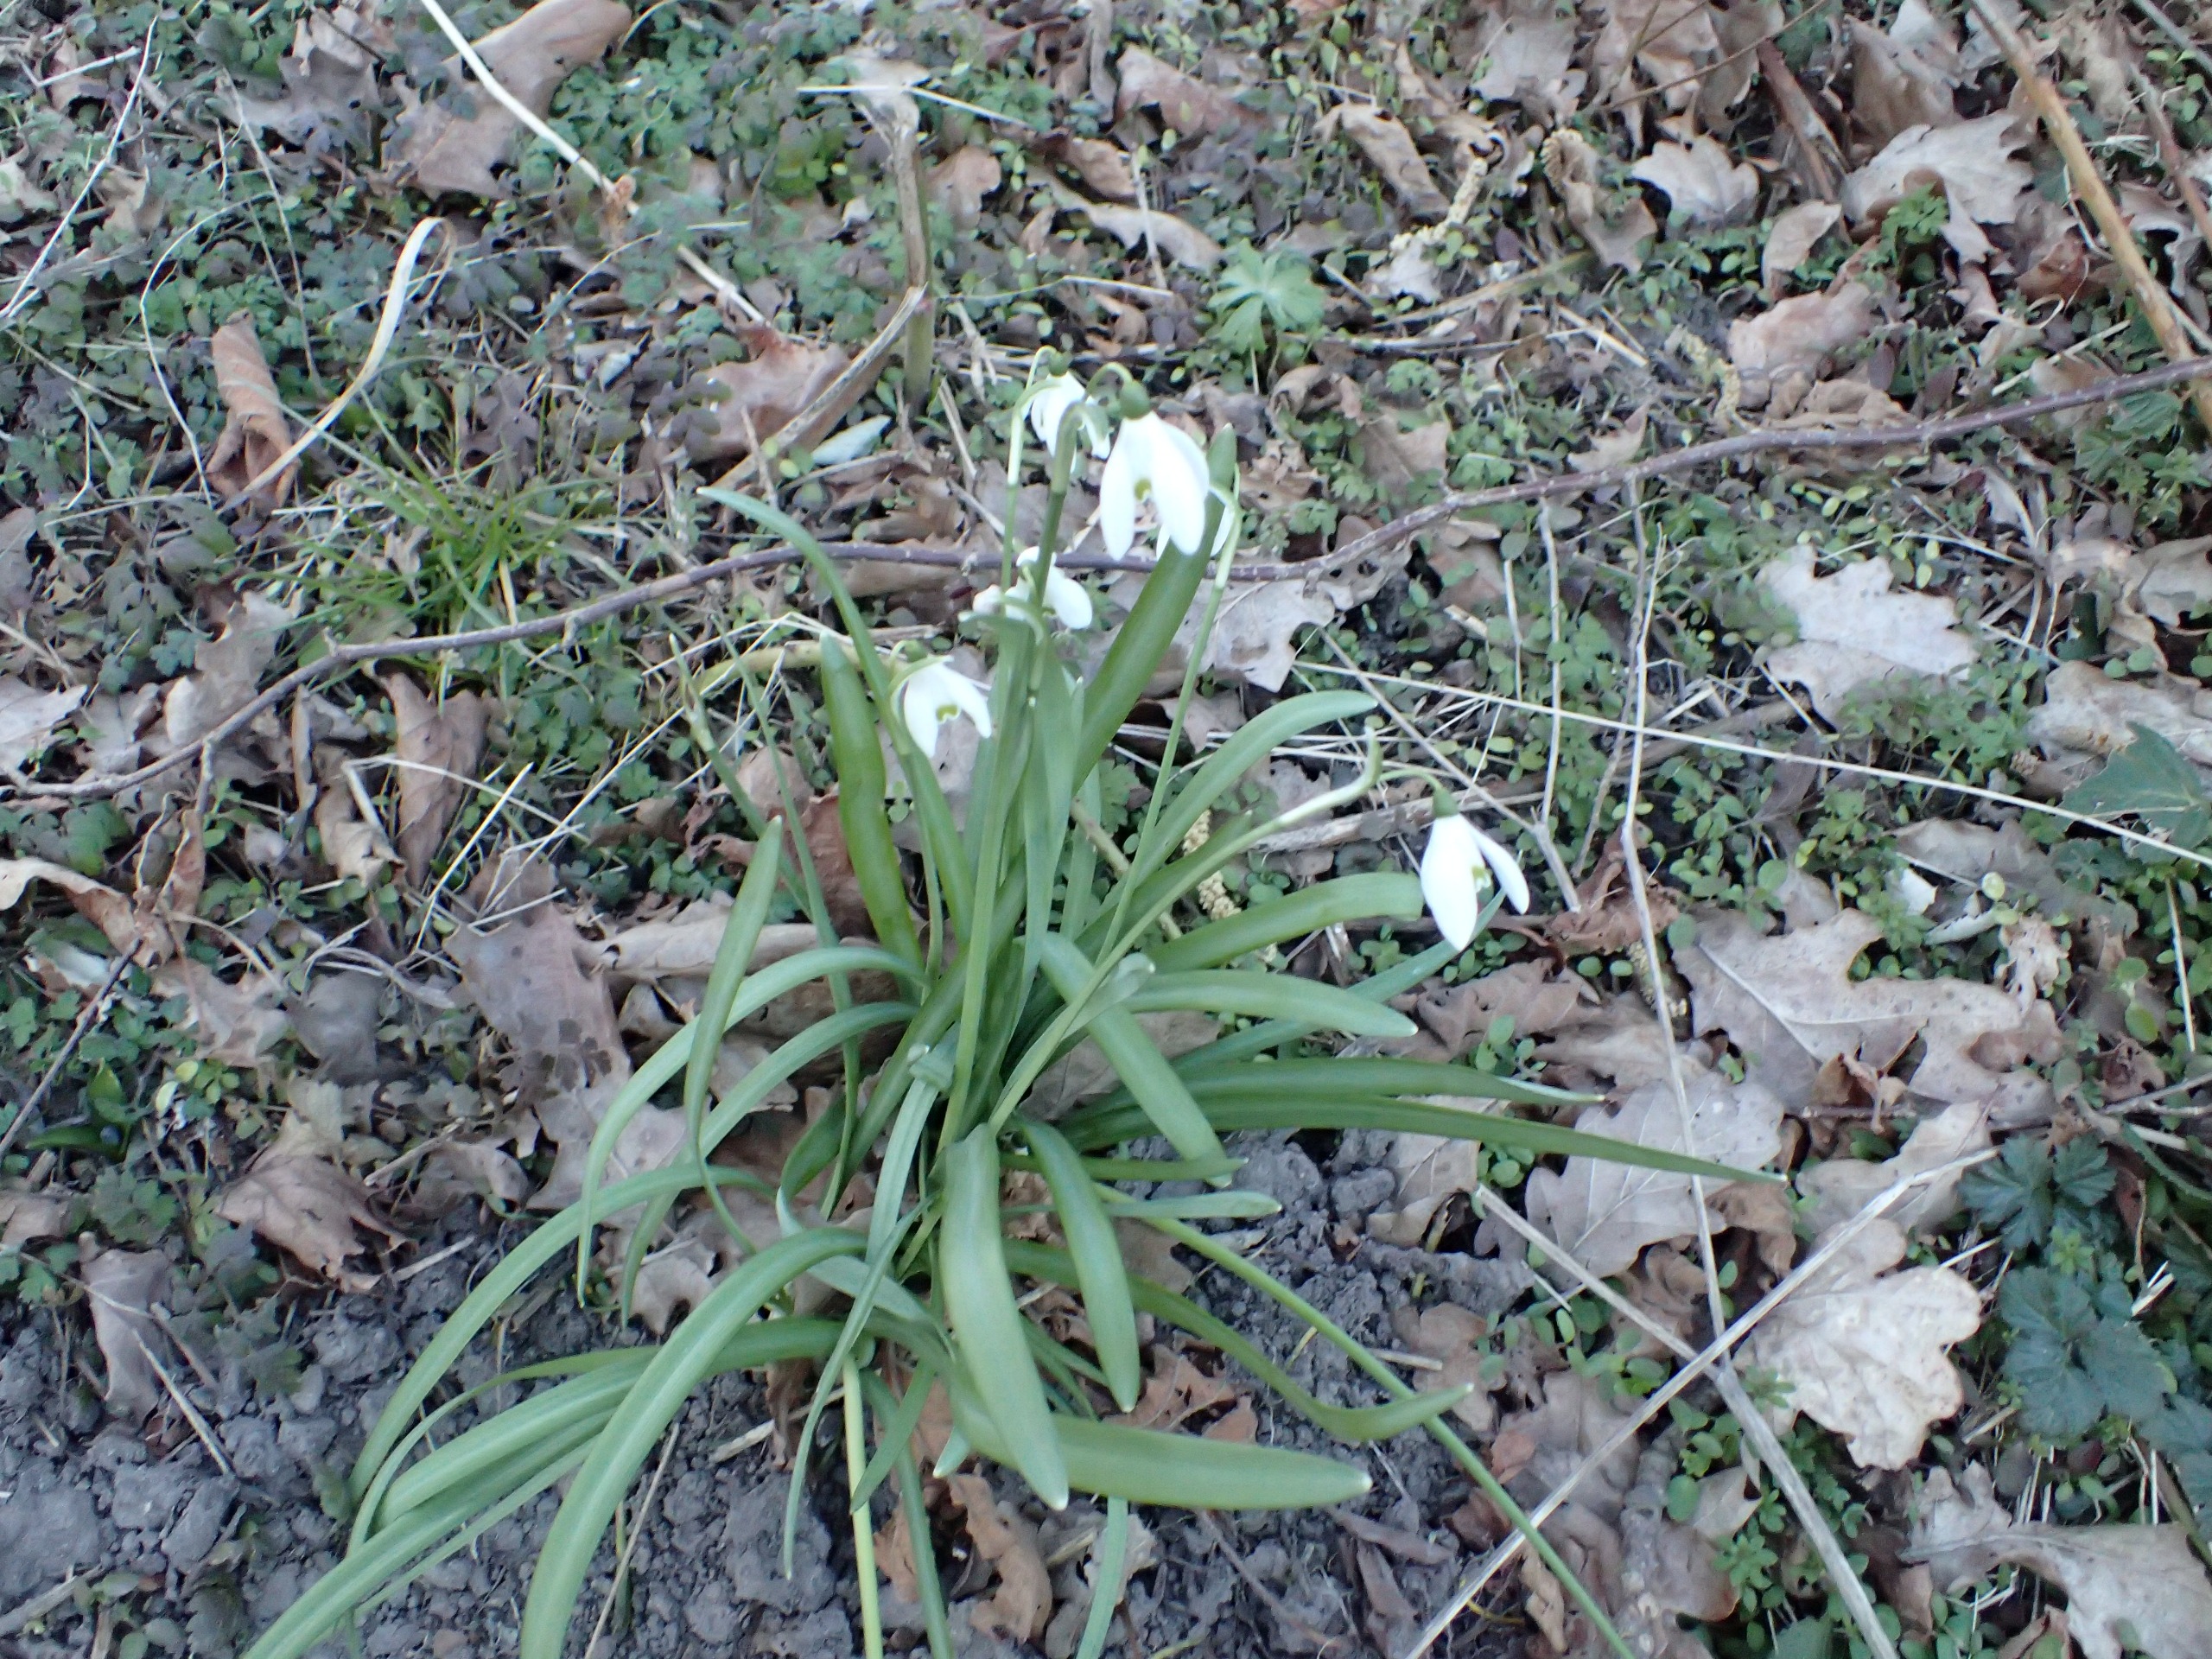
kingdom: Plantae
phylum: Tracheophyta
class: Liliopsida
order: Asparagales
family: Amaryllidaceae
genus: Galanthus
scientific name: Galanthus nivalis
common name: Vintergæk
